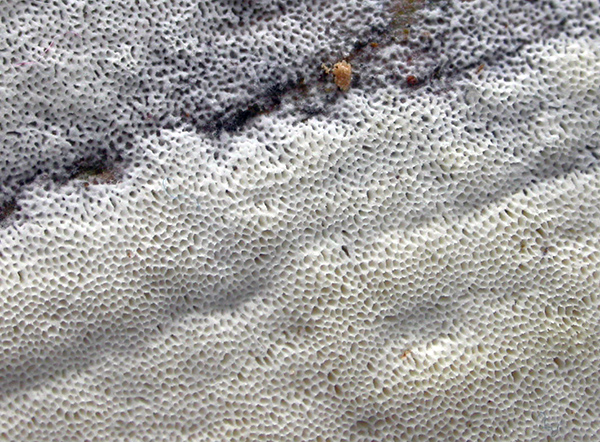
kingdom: Fungi
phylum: Basidiomycota
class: Agaricomycetes
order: Polyporales
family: Incrustoporiaceae
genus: Skeletocutis
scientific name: Skeletocutis kuehneri
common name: smalsporet krystalporesvamp
